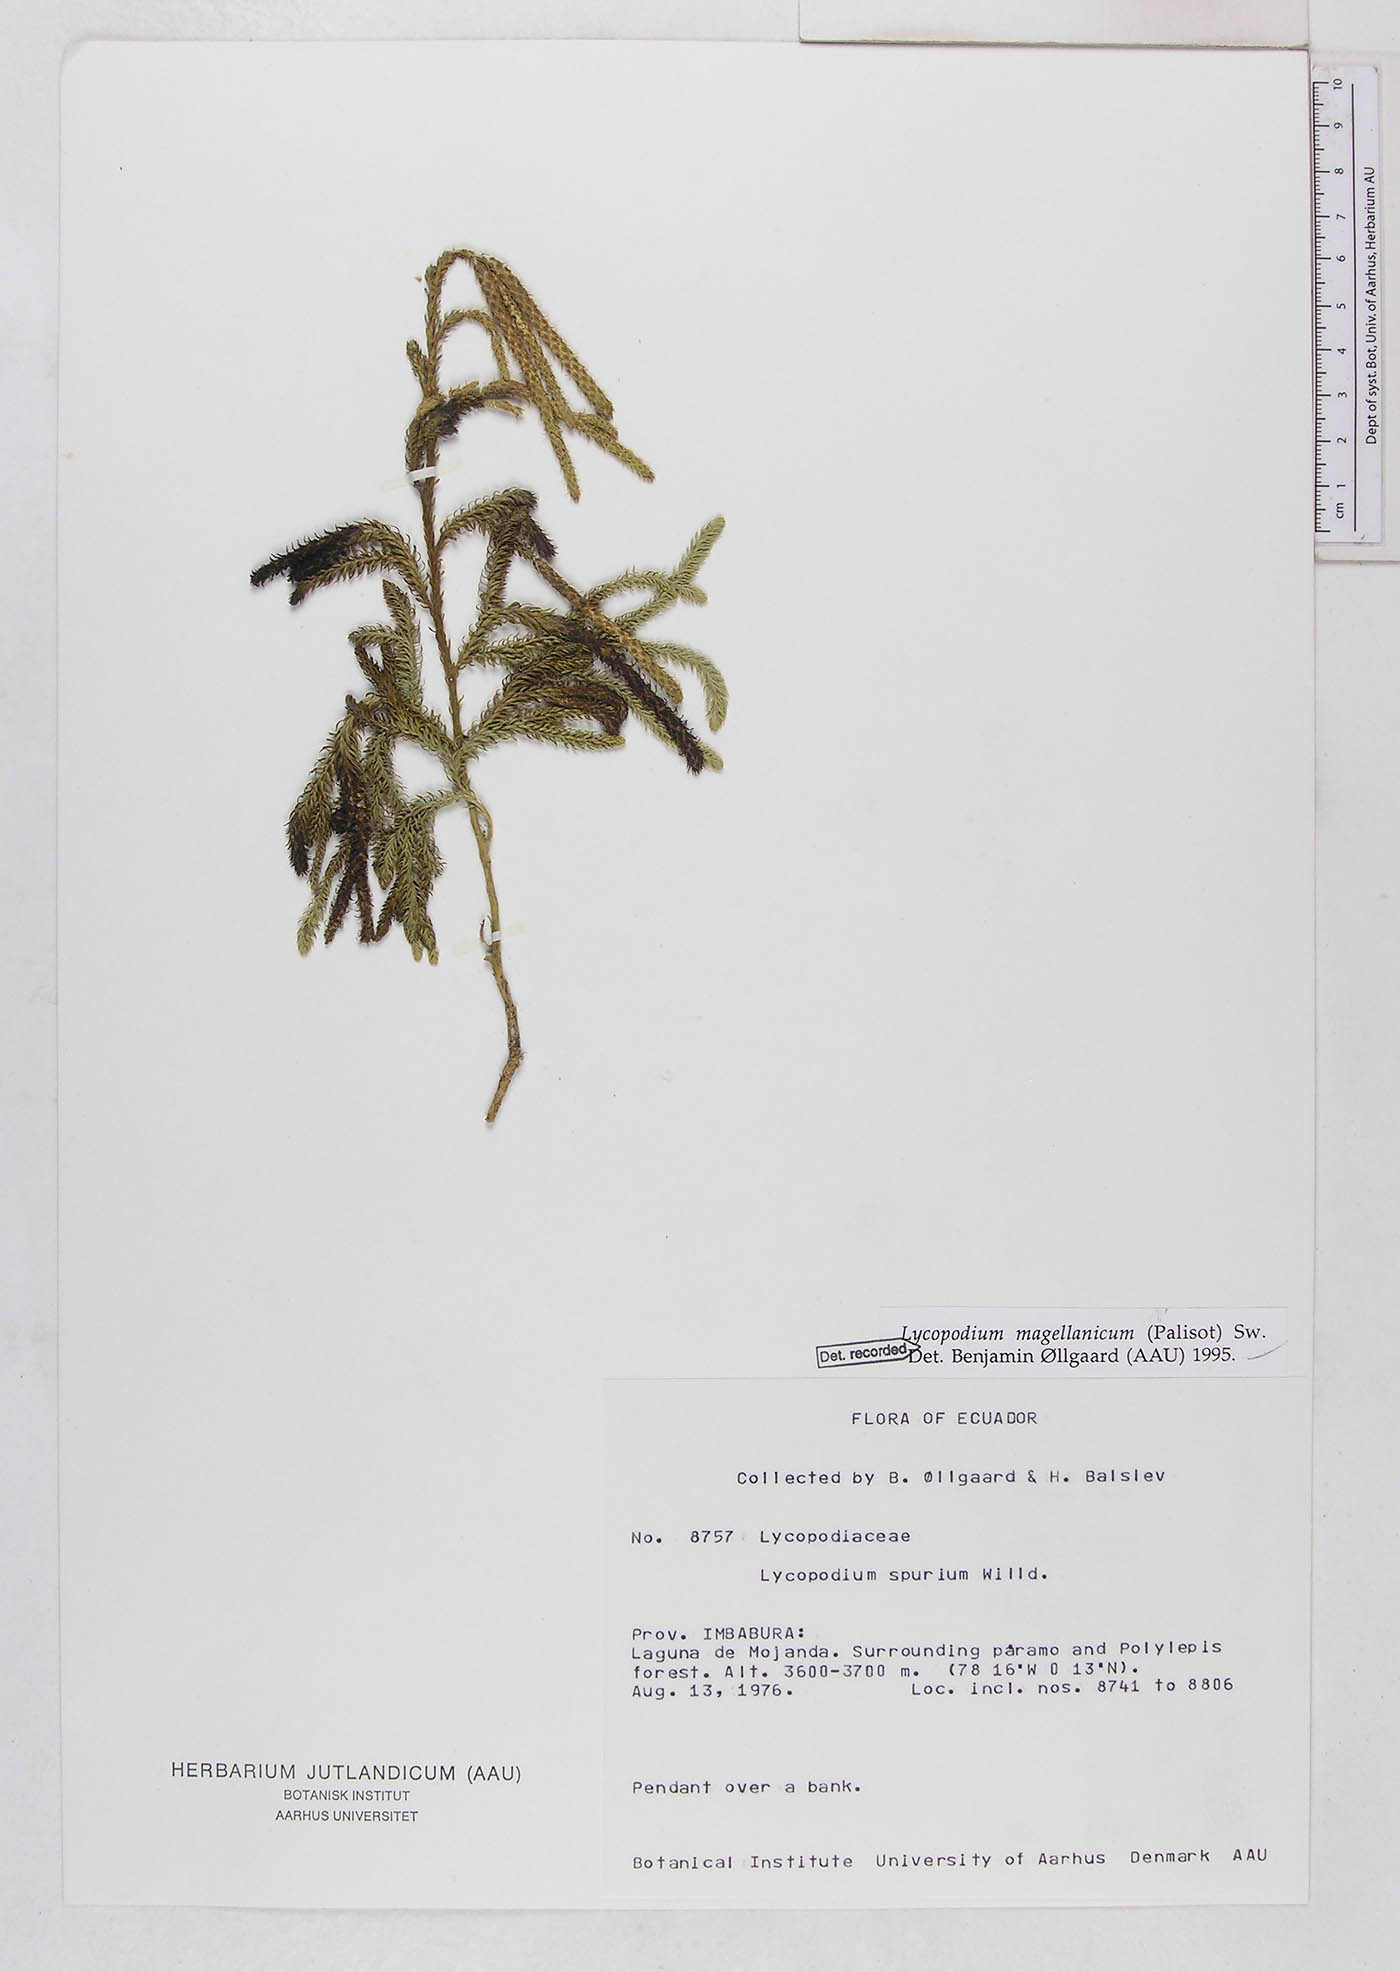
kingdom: Plantae
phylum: Tracheophyta
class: Lycopodiopsida
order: Lycopodiales
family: Lycopodiaceae
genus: Austrolycopodium
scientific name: Austrolycopodium magellanicum
